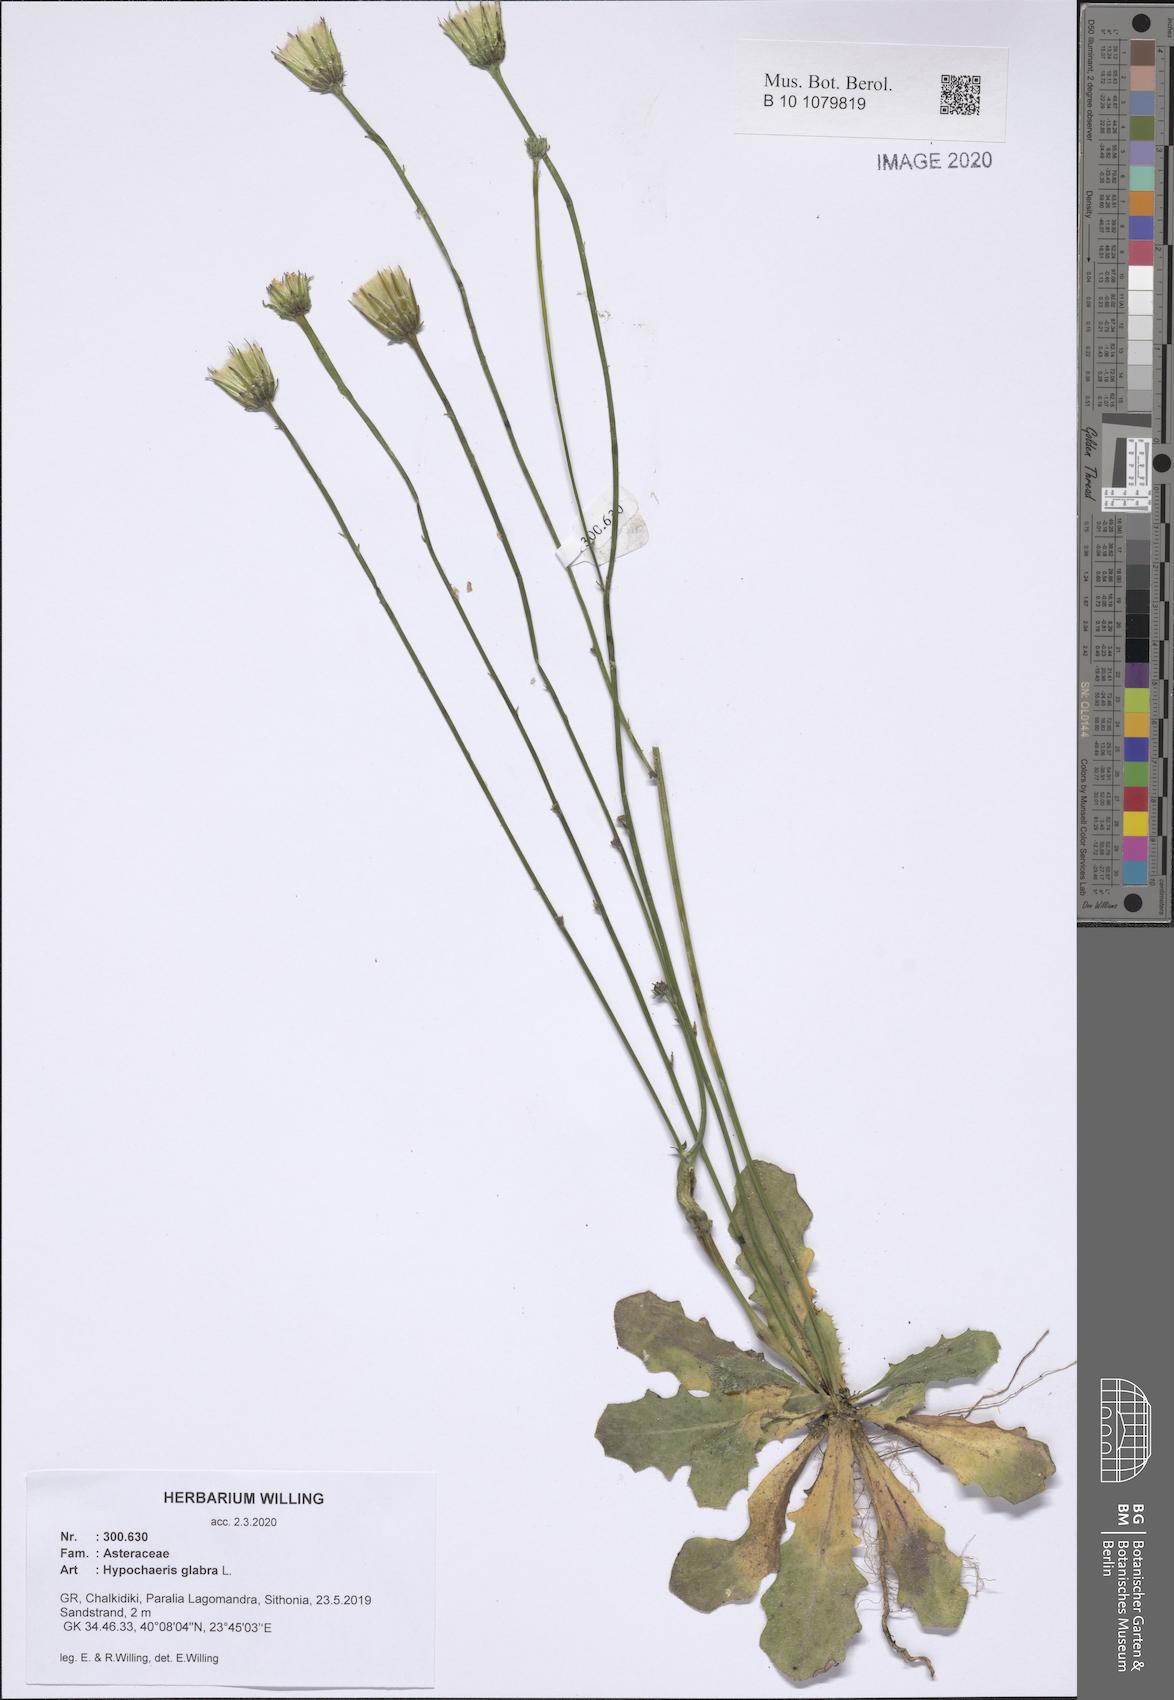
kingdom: Plantae
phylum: Tracheophyta
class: Magnoliopsida
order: Asterales
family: Asteraceae
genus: Hypochaeris
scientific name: Hypochaeris glabra
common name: Smooth catsear
